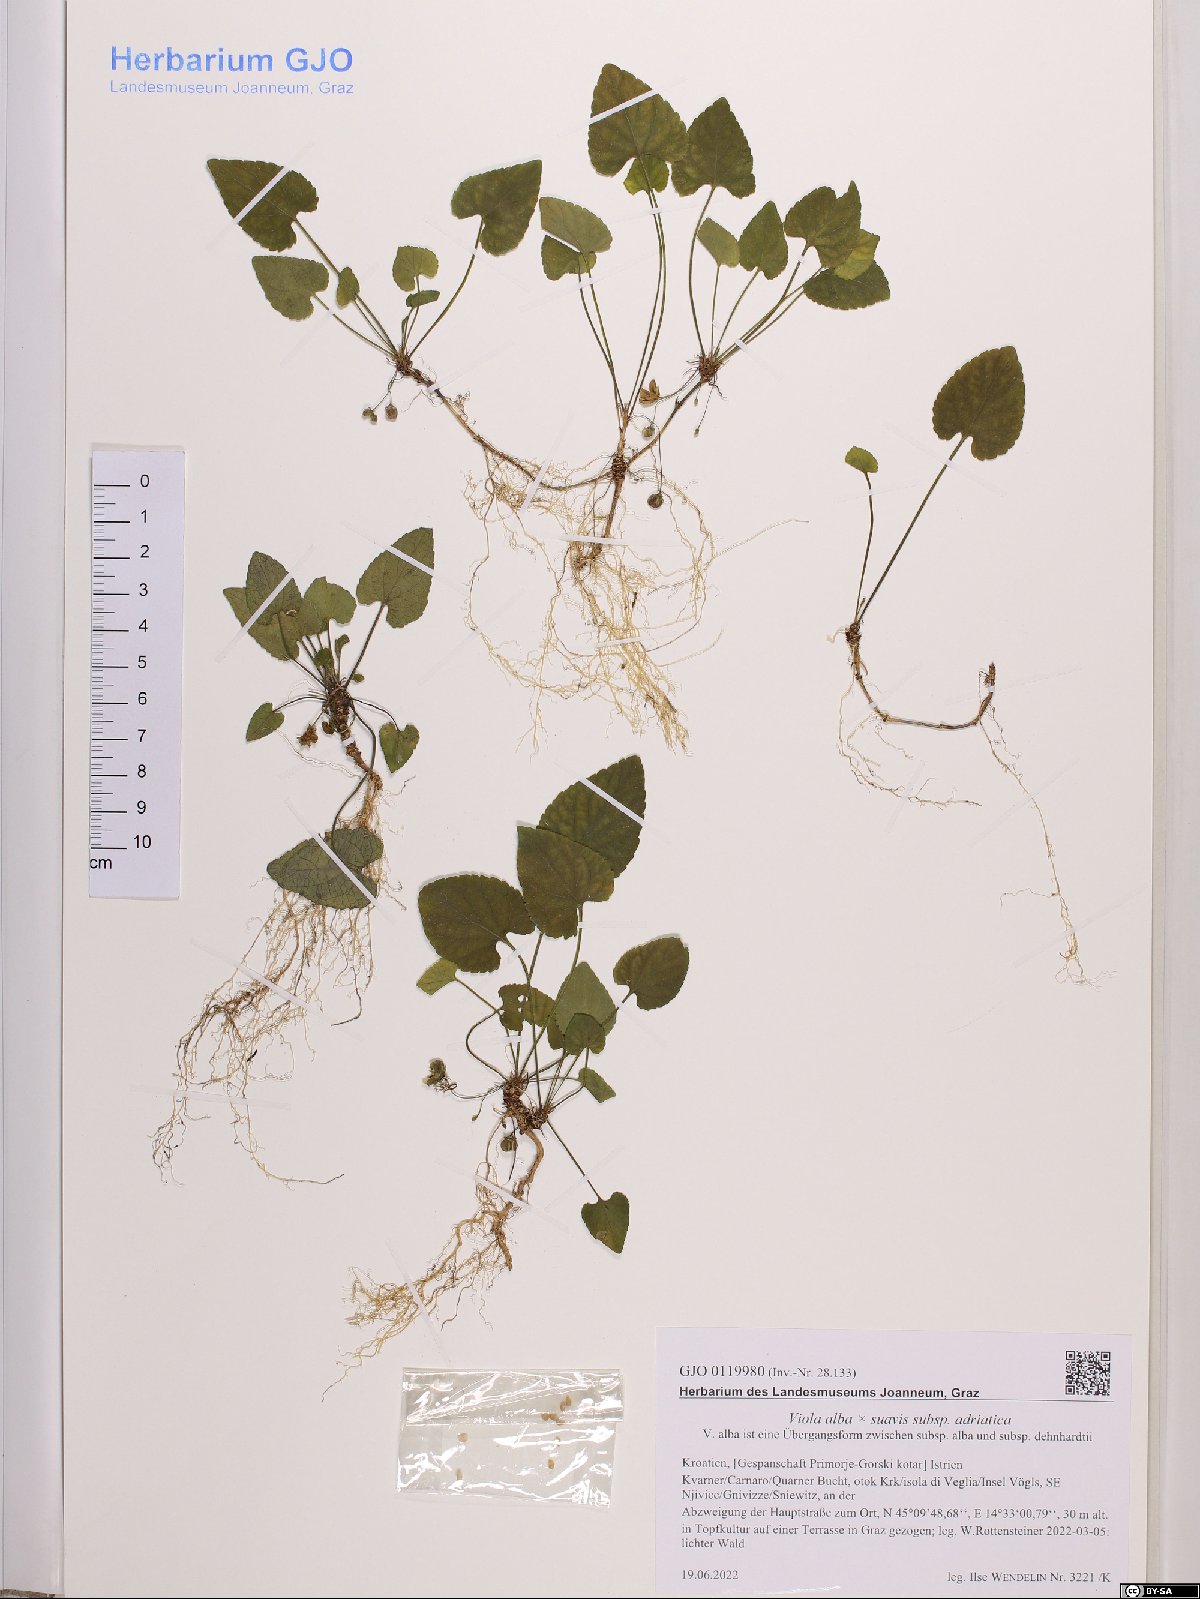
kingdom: Plantae
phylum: Tracheophyta
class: Magnoliopsida
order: Malpighiales
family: Violaceae
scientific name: Violaceae
